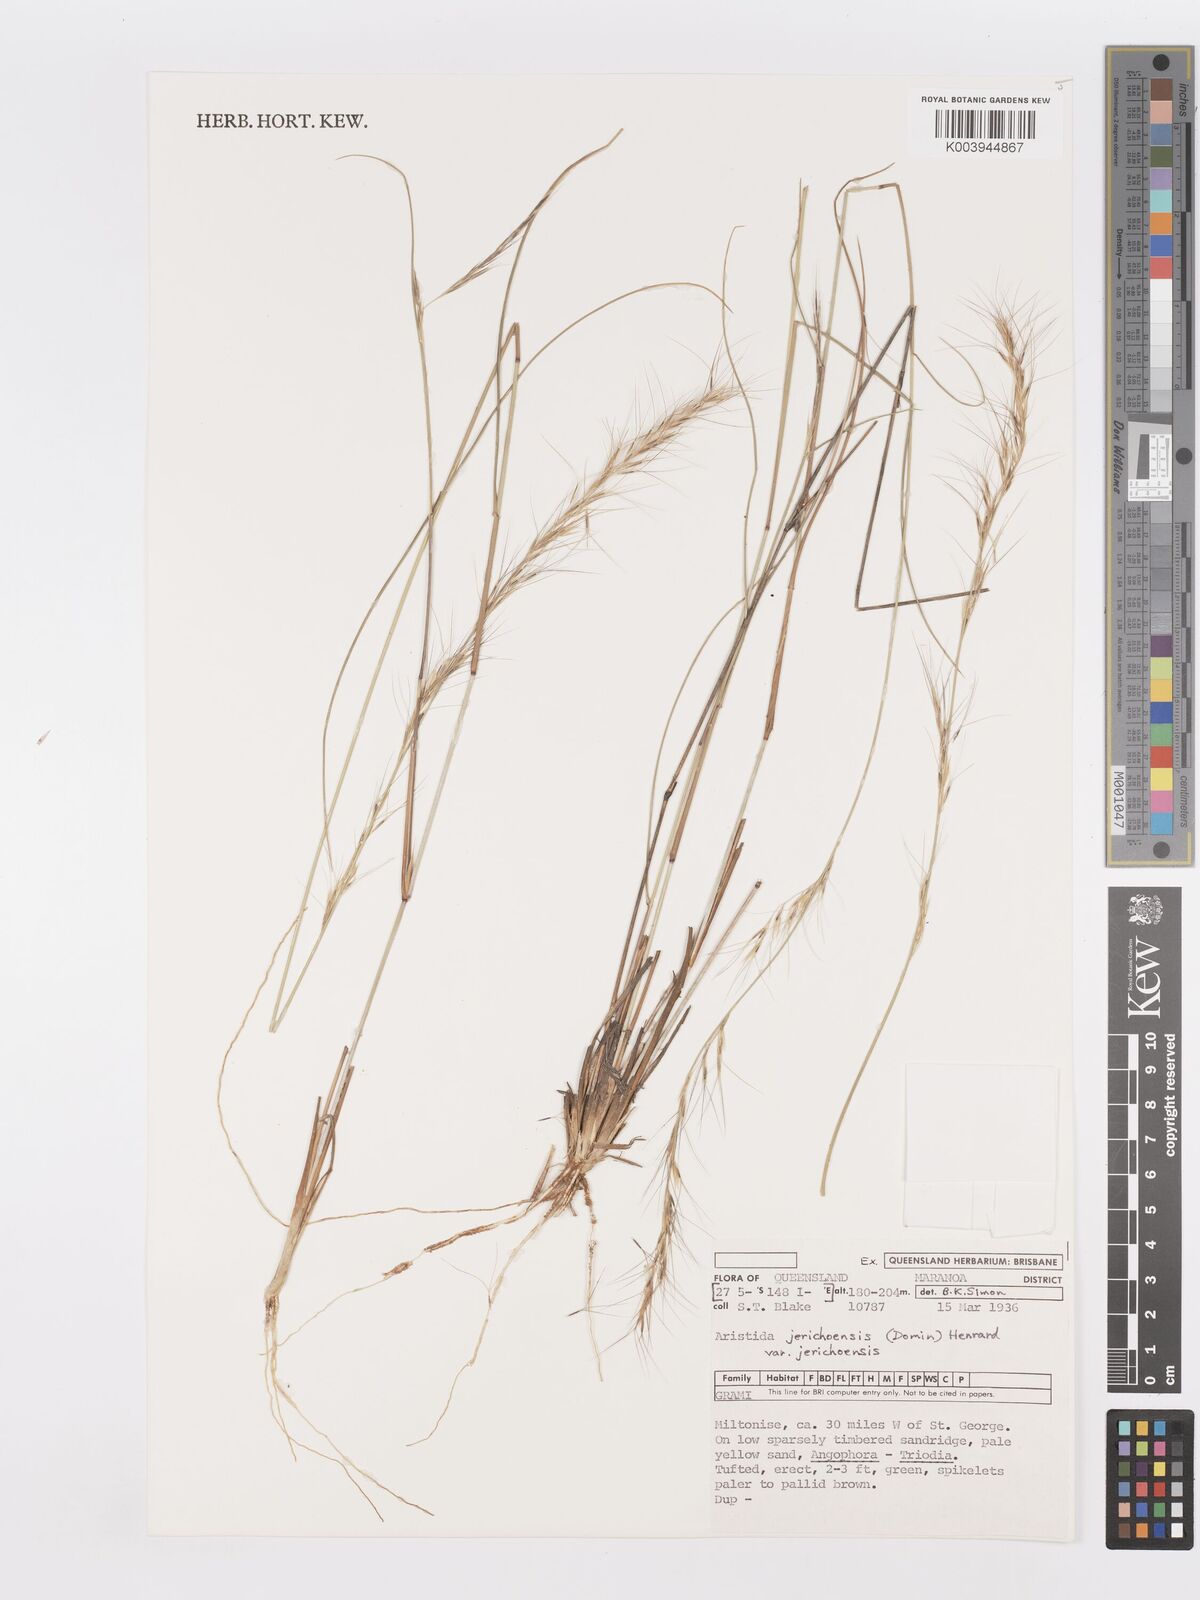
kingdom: Plantae
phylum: Tracheophyta
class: Liliopsida
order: Poales
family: Poaceae
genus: Aristida
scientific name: Aristida jerichoensis
